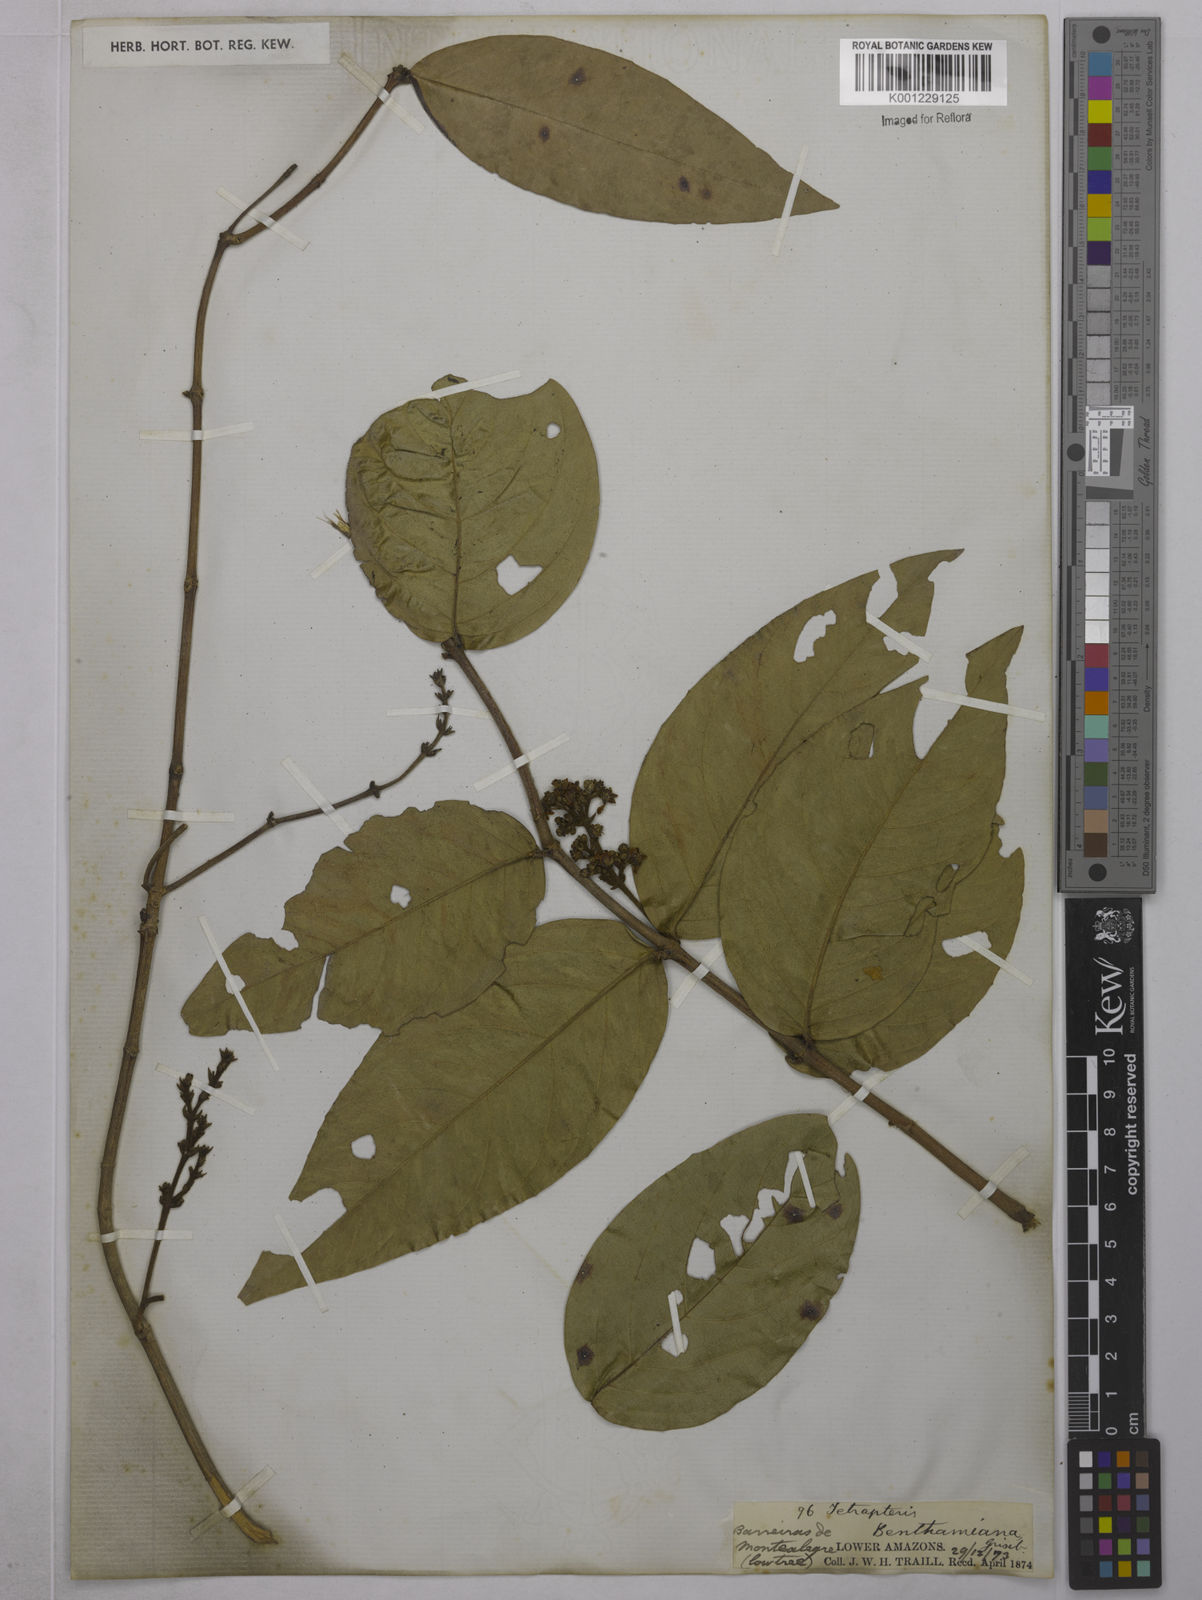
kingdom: Plantae
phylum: Tracheophyta
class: Magnoliopsida
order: Malpighiales
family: Malpighiaceae
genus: Niedenzuella
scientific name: Niedenzuella stannea
